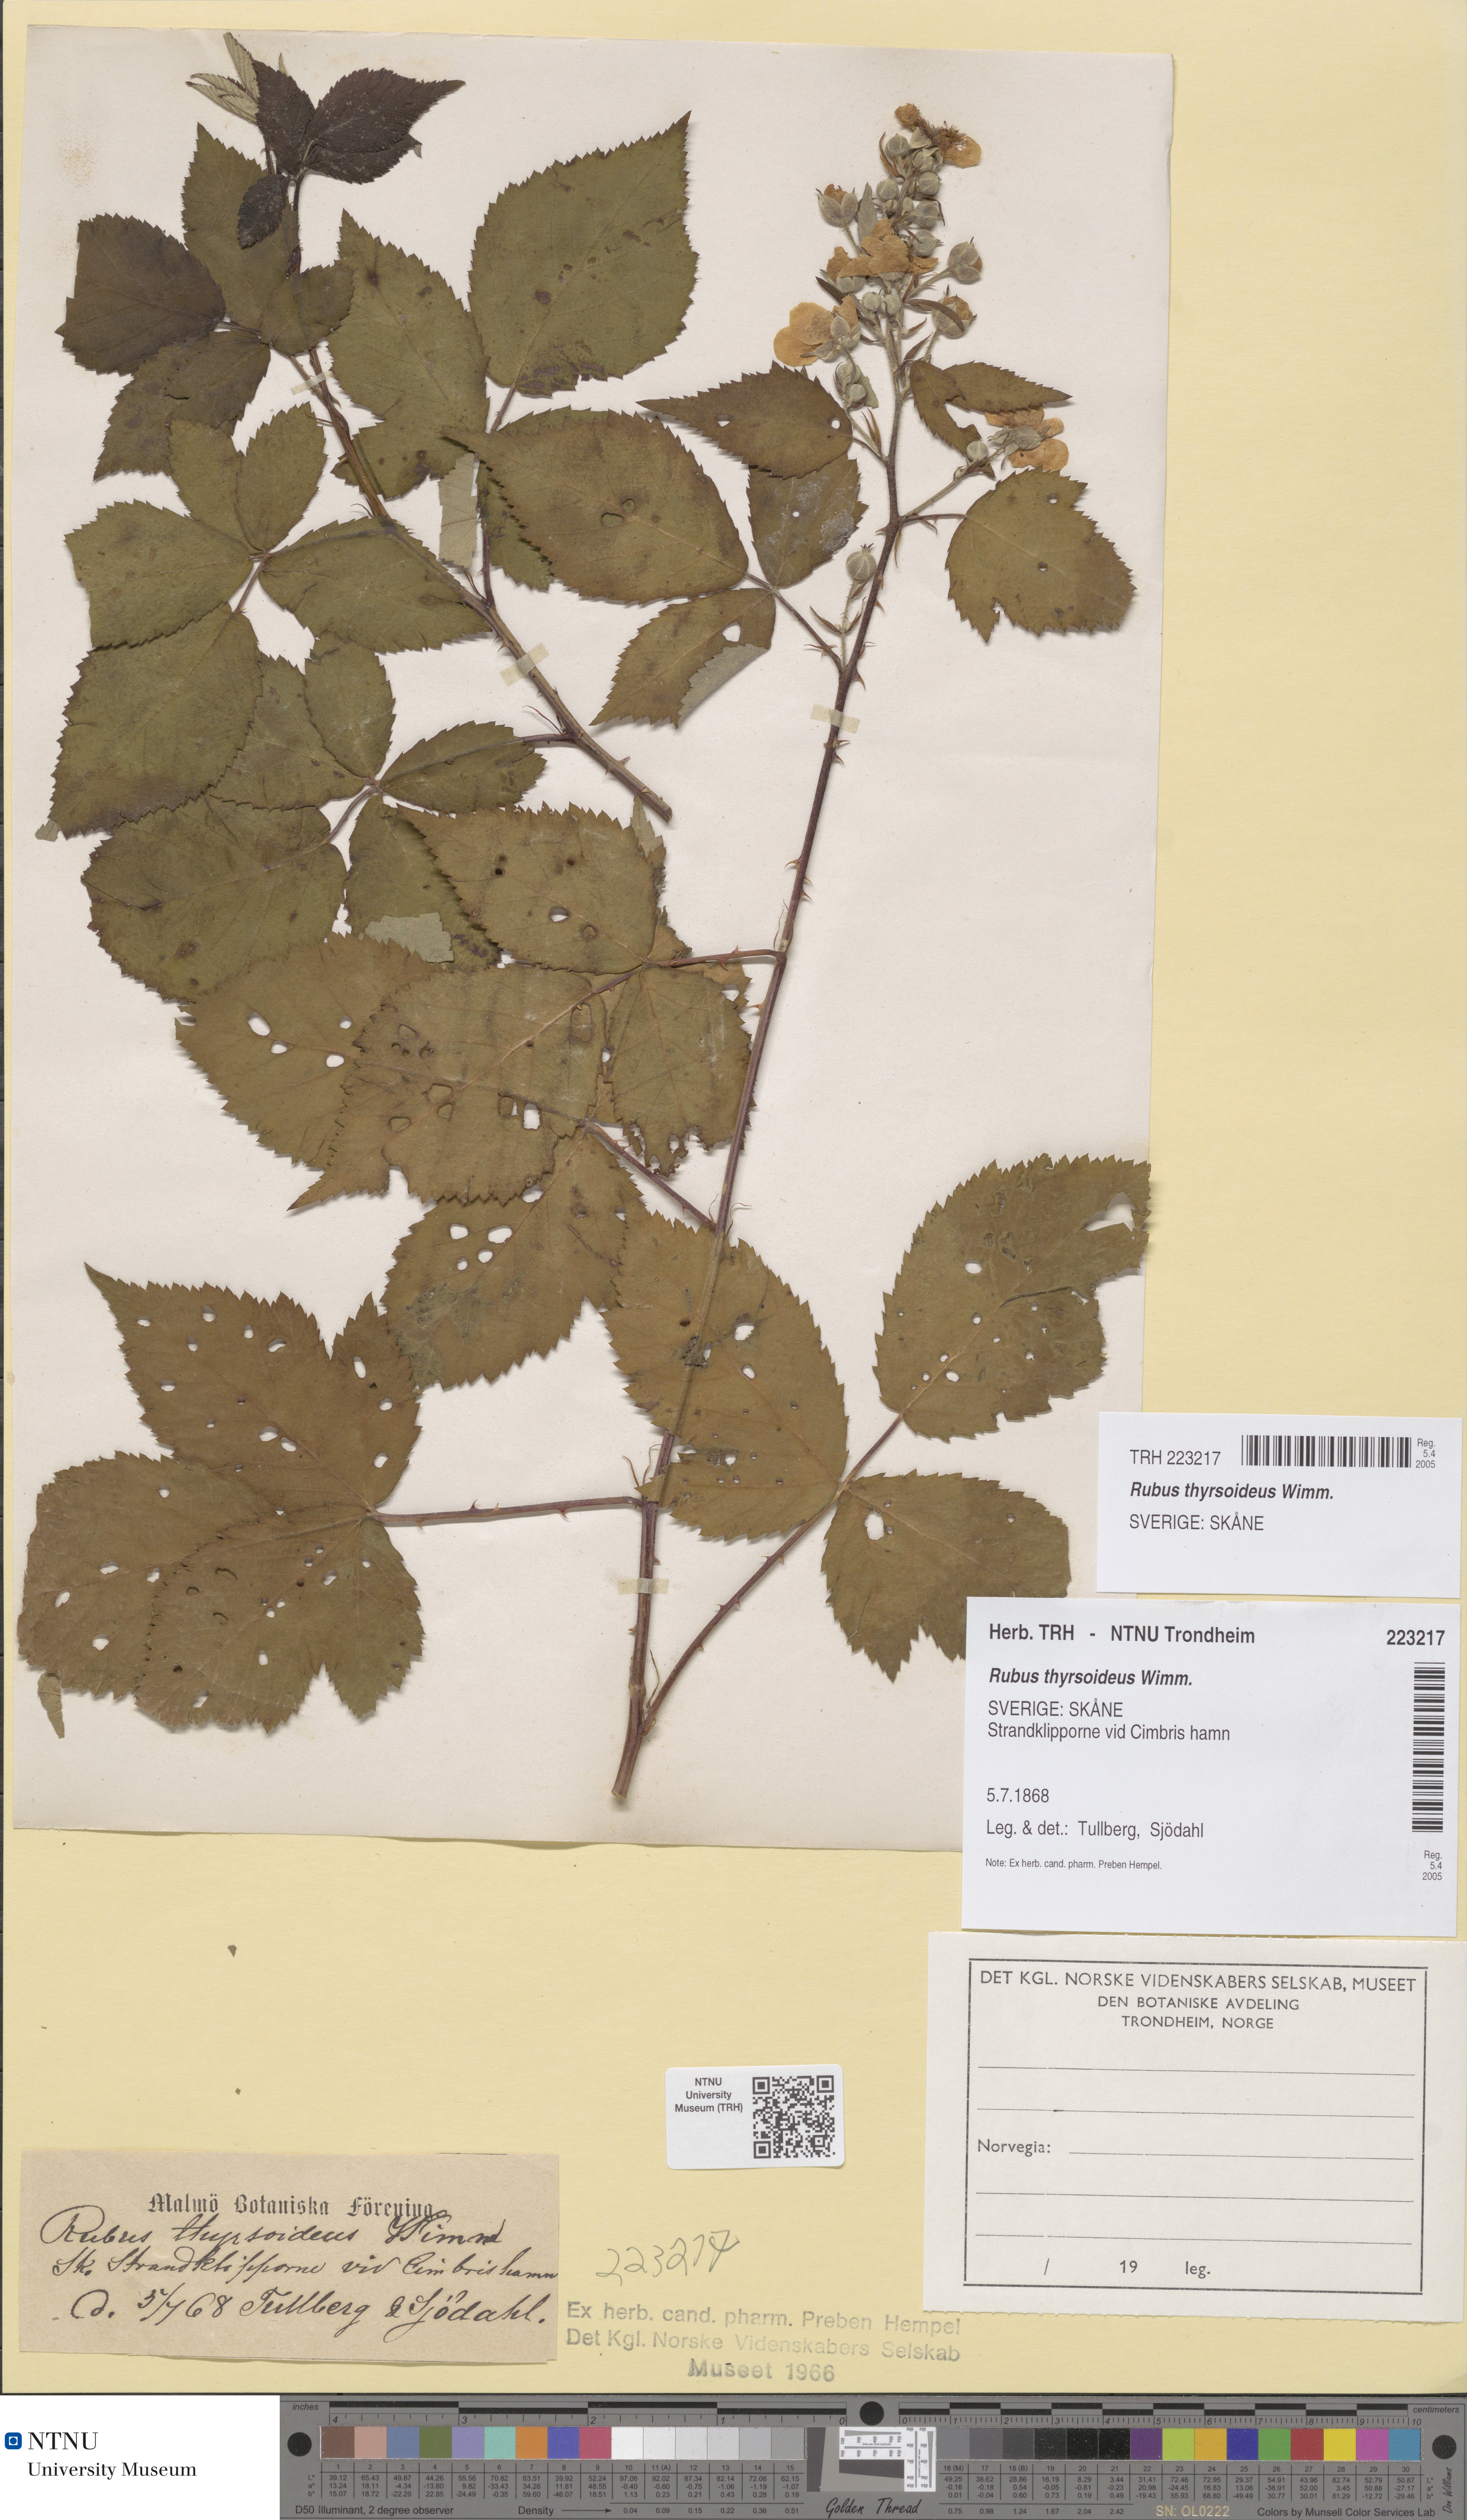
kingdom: Plantae
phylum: Tracheophyta
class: Magnoliopsida
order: Rosales
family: Rosaceae
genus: Rubus
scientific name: Rubus
